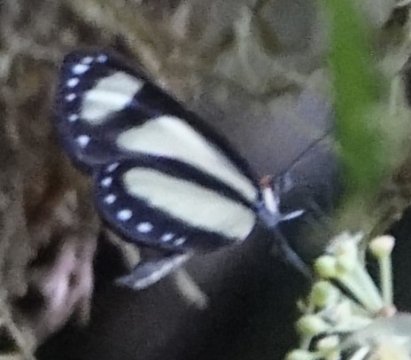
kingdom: Animalia
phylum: Arthropoda
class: Insecta
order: Lepidoptera
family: Nymphalidae
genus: Aeria
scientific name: Aeria eurimedia
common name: Banded Tigerwing
